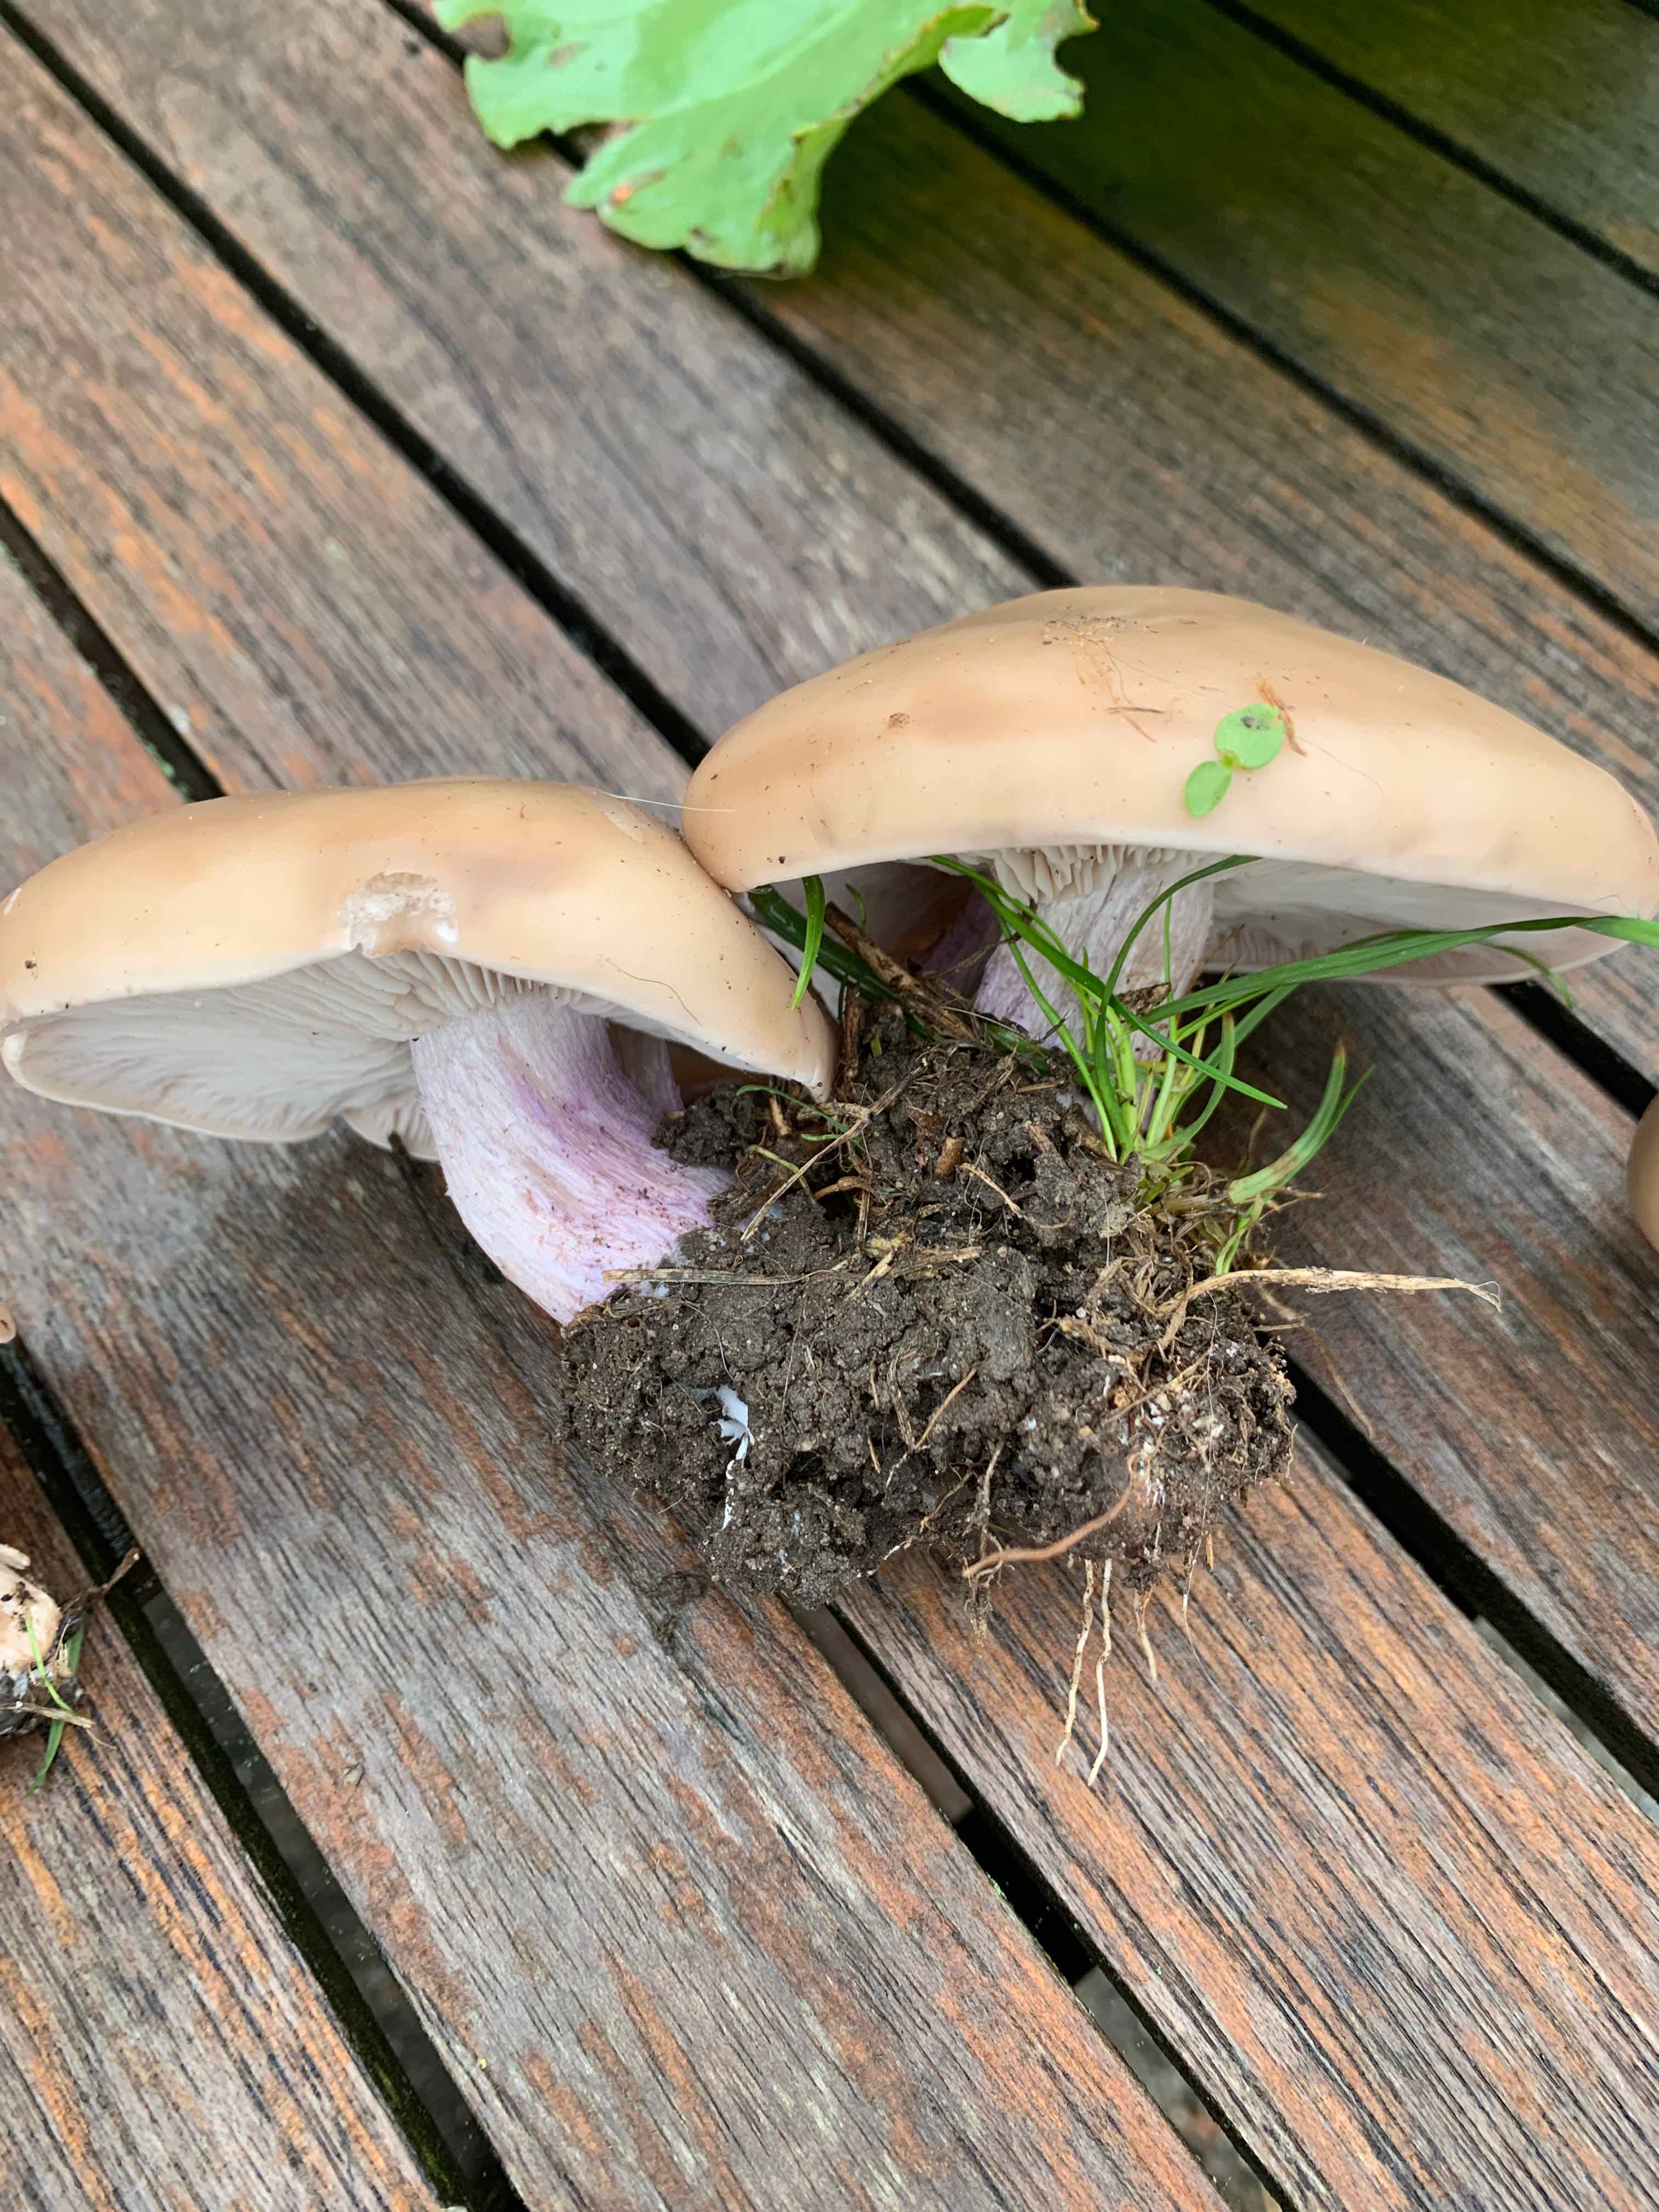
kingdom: Fungi
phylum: Basidiomycota
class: Agaricomycetes
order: Agaricales
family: Tricholomataceae
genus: Lepista
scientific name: Lepista personata
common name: bleg hekseringshat
